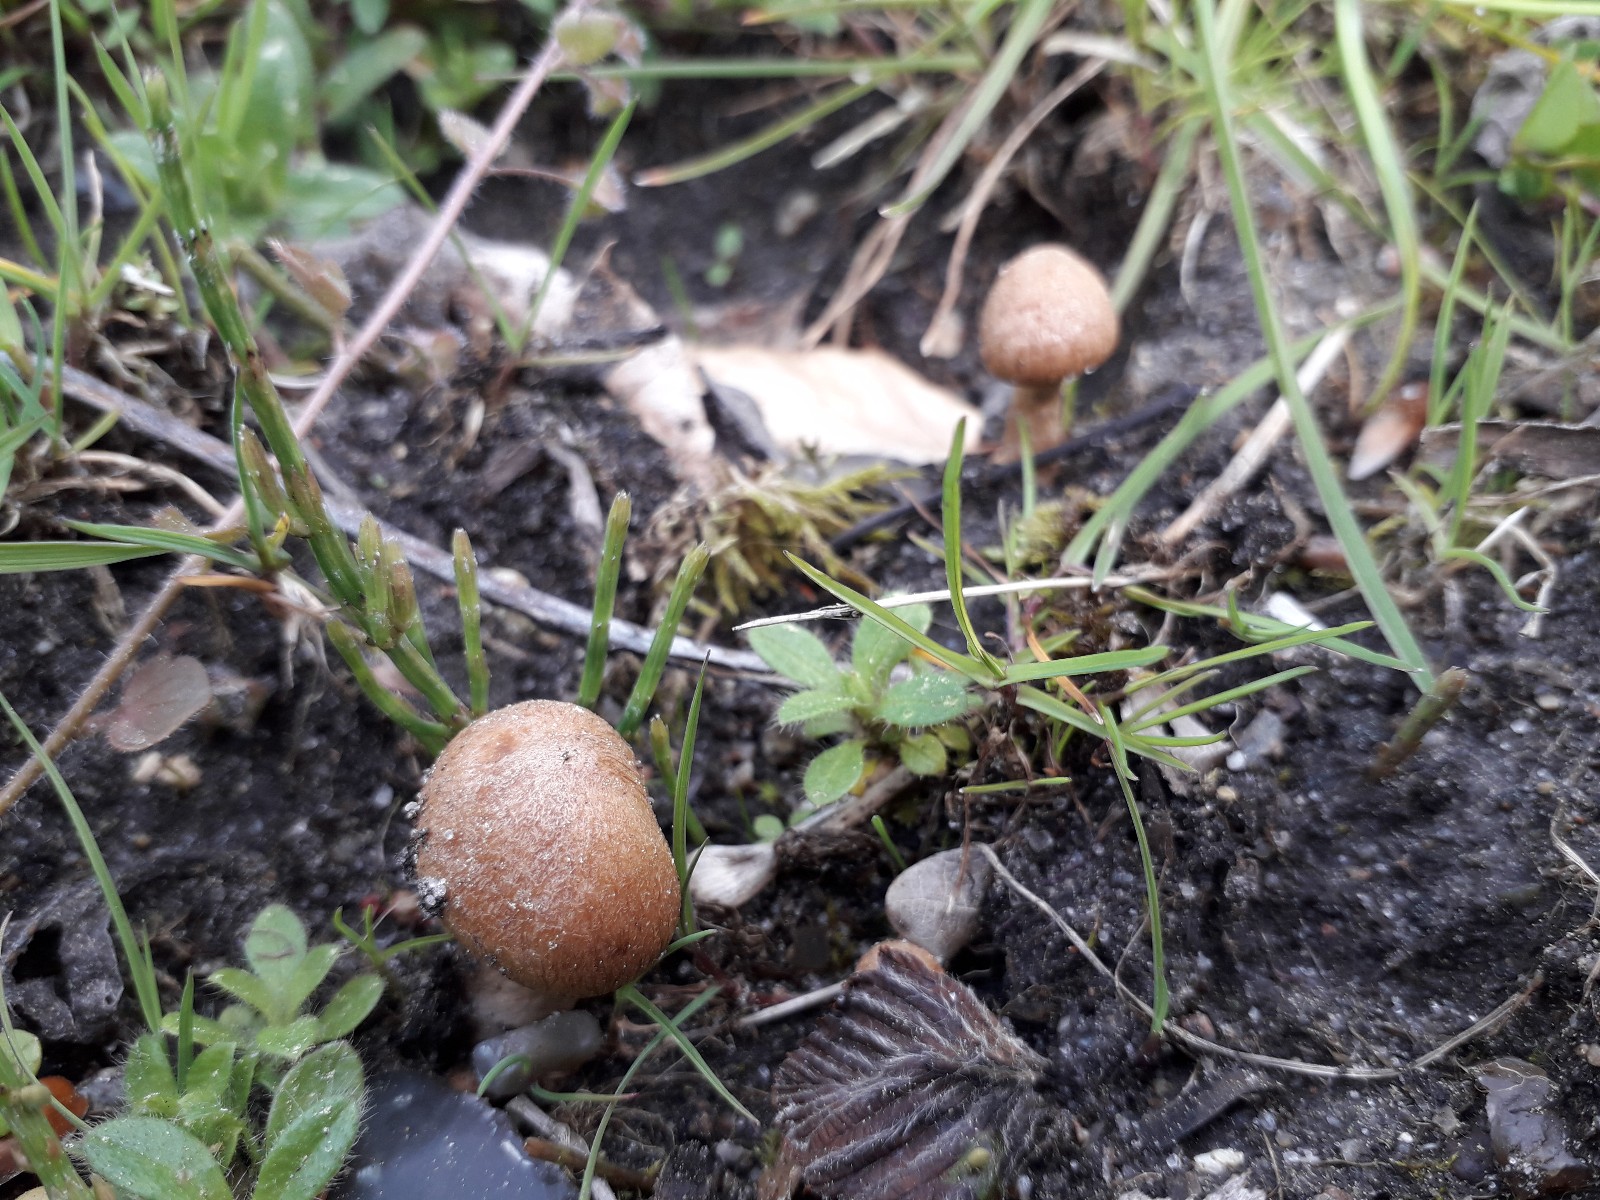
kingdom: Fungi
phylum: Basidiomycota
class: Agaricomycetes
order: Agaricales
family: Psathyrellaceae
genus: Lacrymaria
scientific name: Lacrymaria lacrymabunda
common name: grædende mørkhat
